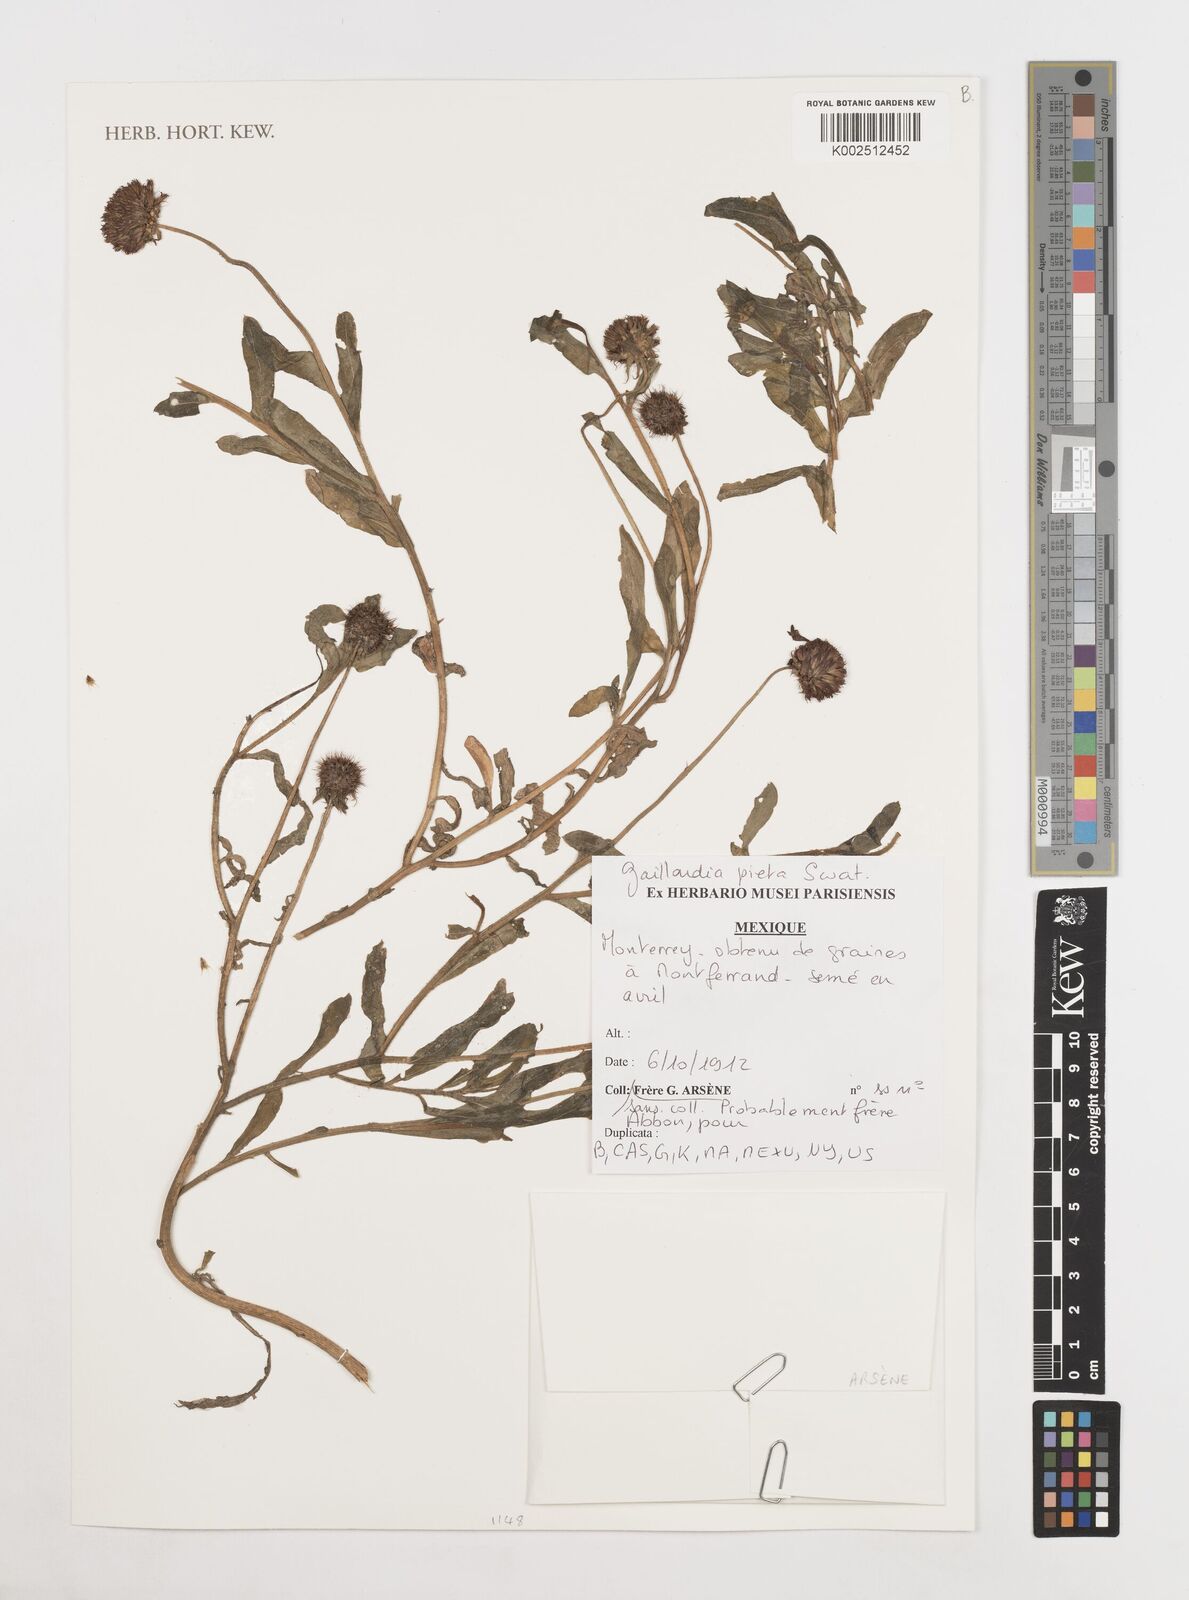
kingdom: Plantae
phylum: Tracheophyta
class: Magnoliopsida
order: Asterales
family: Asteraceae
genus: Gaillardia
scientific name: Gaillardia pulchella
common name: Firewheel
